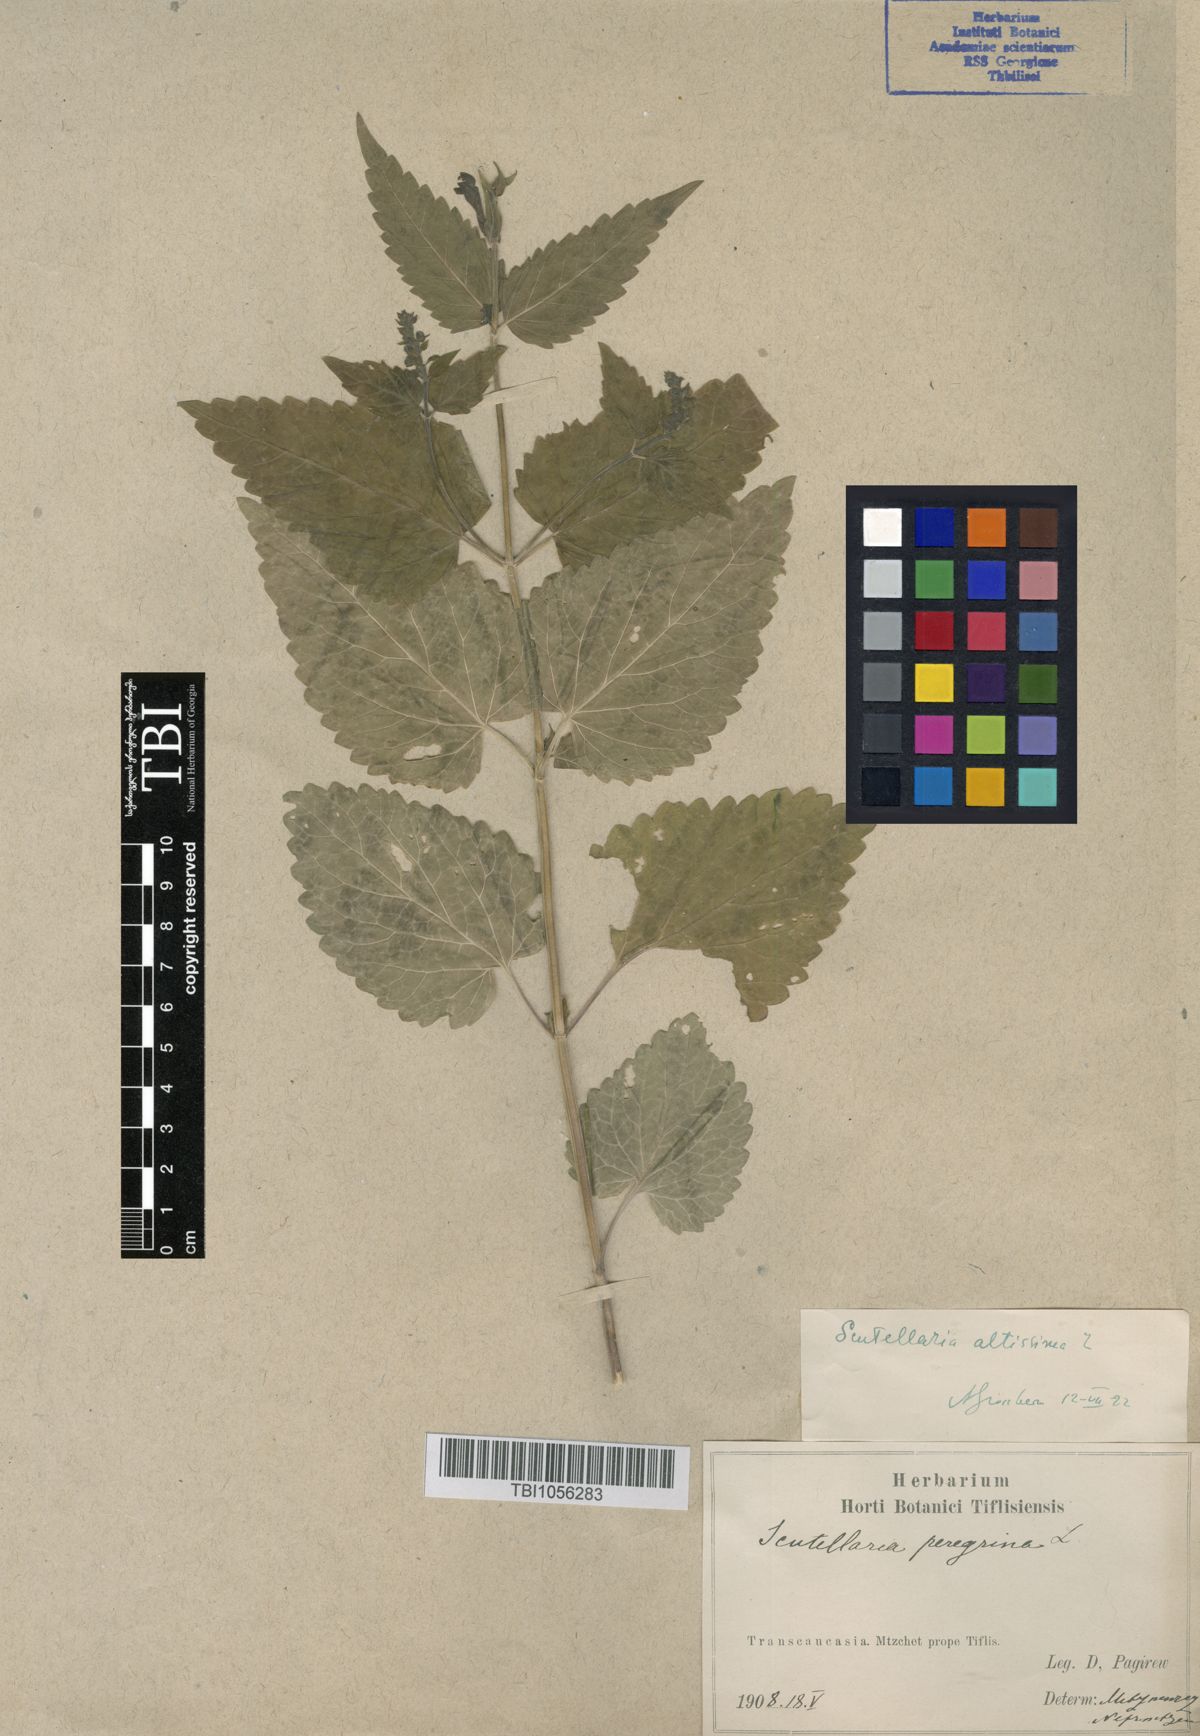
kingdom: Plantae
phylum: Tracheophyta
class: Magnoliopsida
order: Lamiales
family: Lamiaceae
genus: Scutellaria
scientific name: Scutellaria altissima
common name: Somerset skullcap
